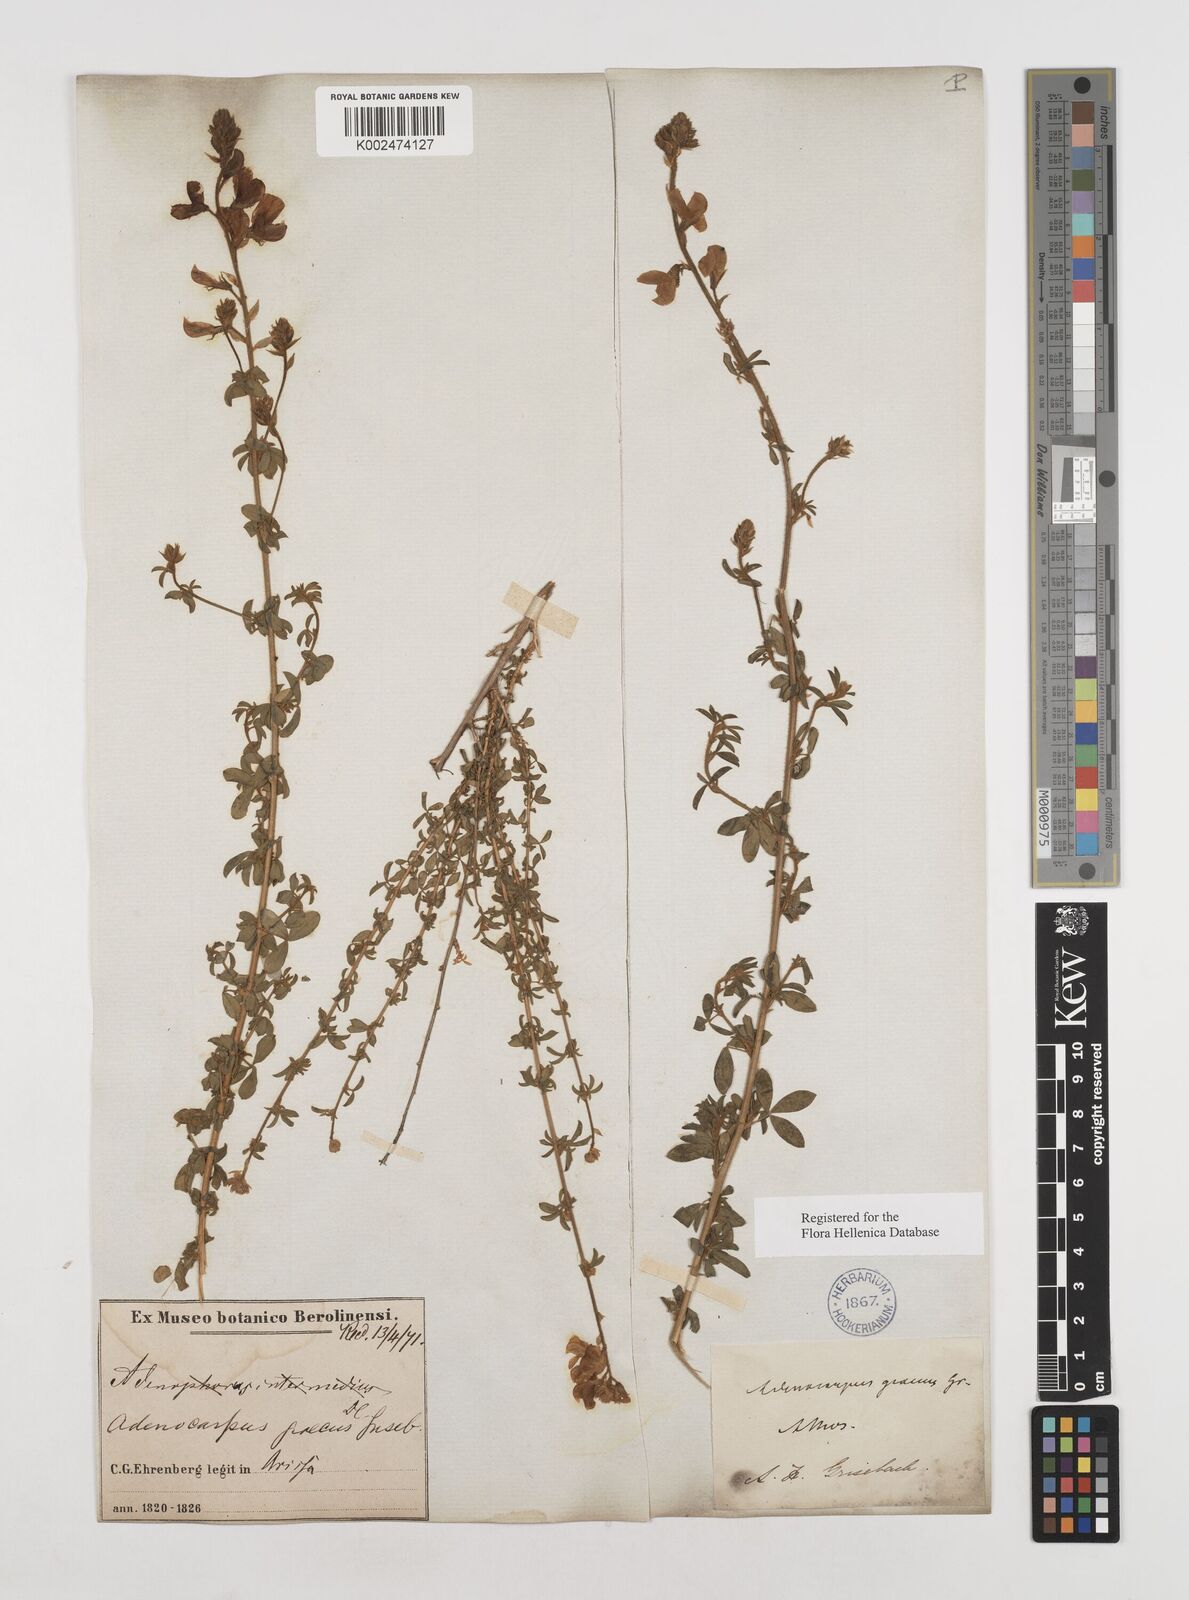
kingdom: Plantae
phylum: Tracheophyta
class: Magnoliopsida
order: Fabales
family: Fabaceae
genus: Adenocarpus
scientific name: Adenocarpus complicatus
